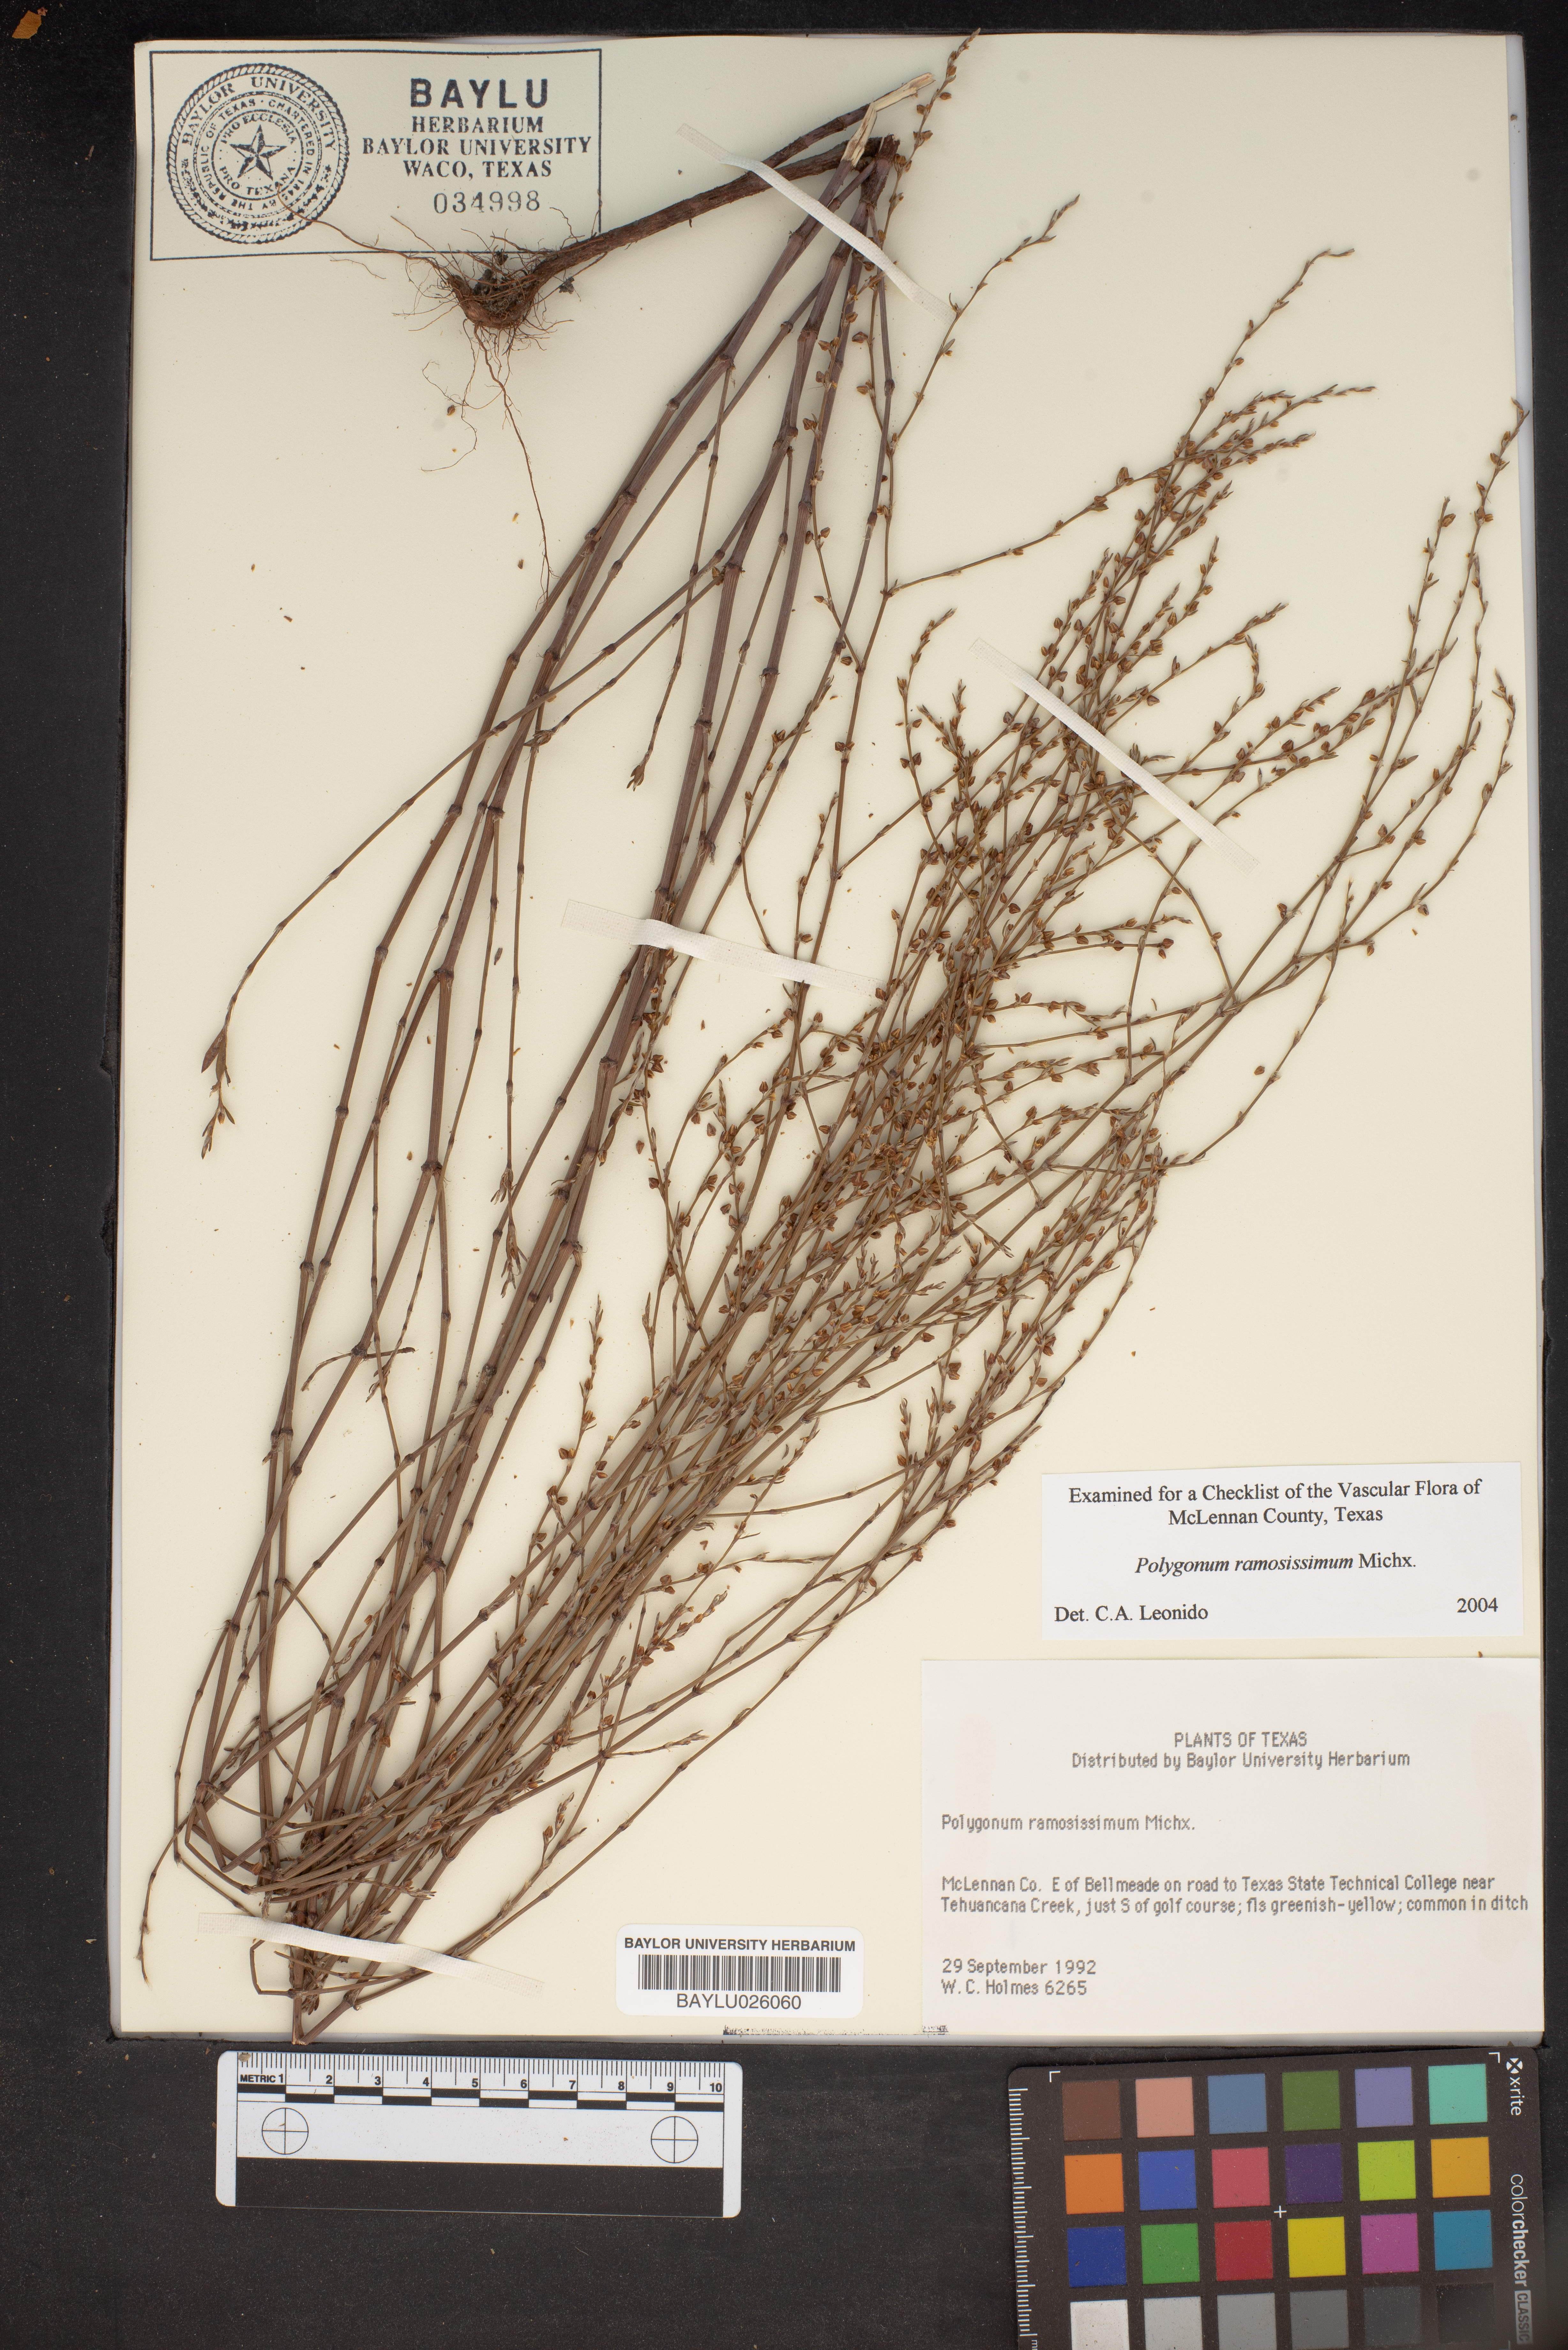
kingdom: Plantae
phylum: Tracheophyta
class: Magnoliopsida
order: Caryophyllales
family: Polygonaceae
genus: Polygonum
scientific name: Polygonum ramosissimum
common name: Bushy knotweed
